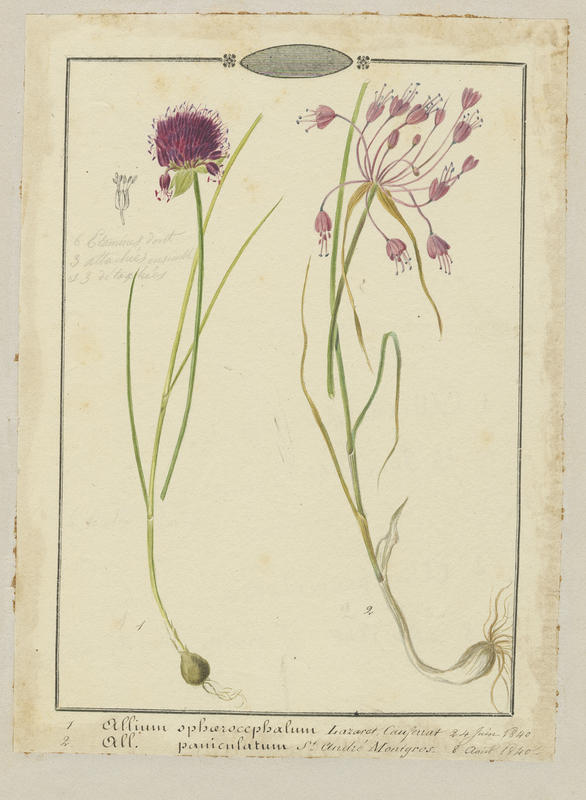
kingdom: Plantae
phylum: Tracheophyta
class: Liliopsida
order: Asparagales
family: Amaryllidaceae
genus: Allium
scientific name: Allium paniculatum
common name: Pale garlic
